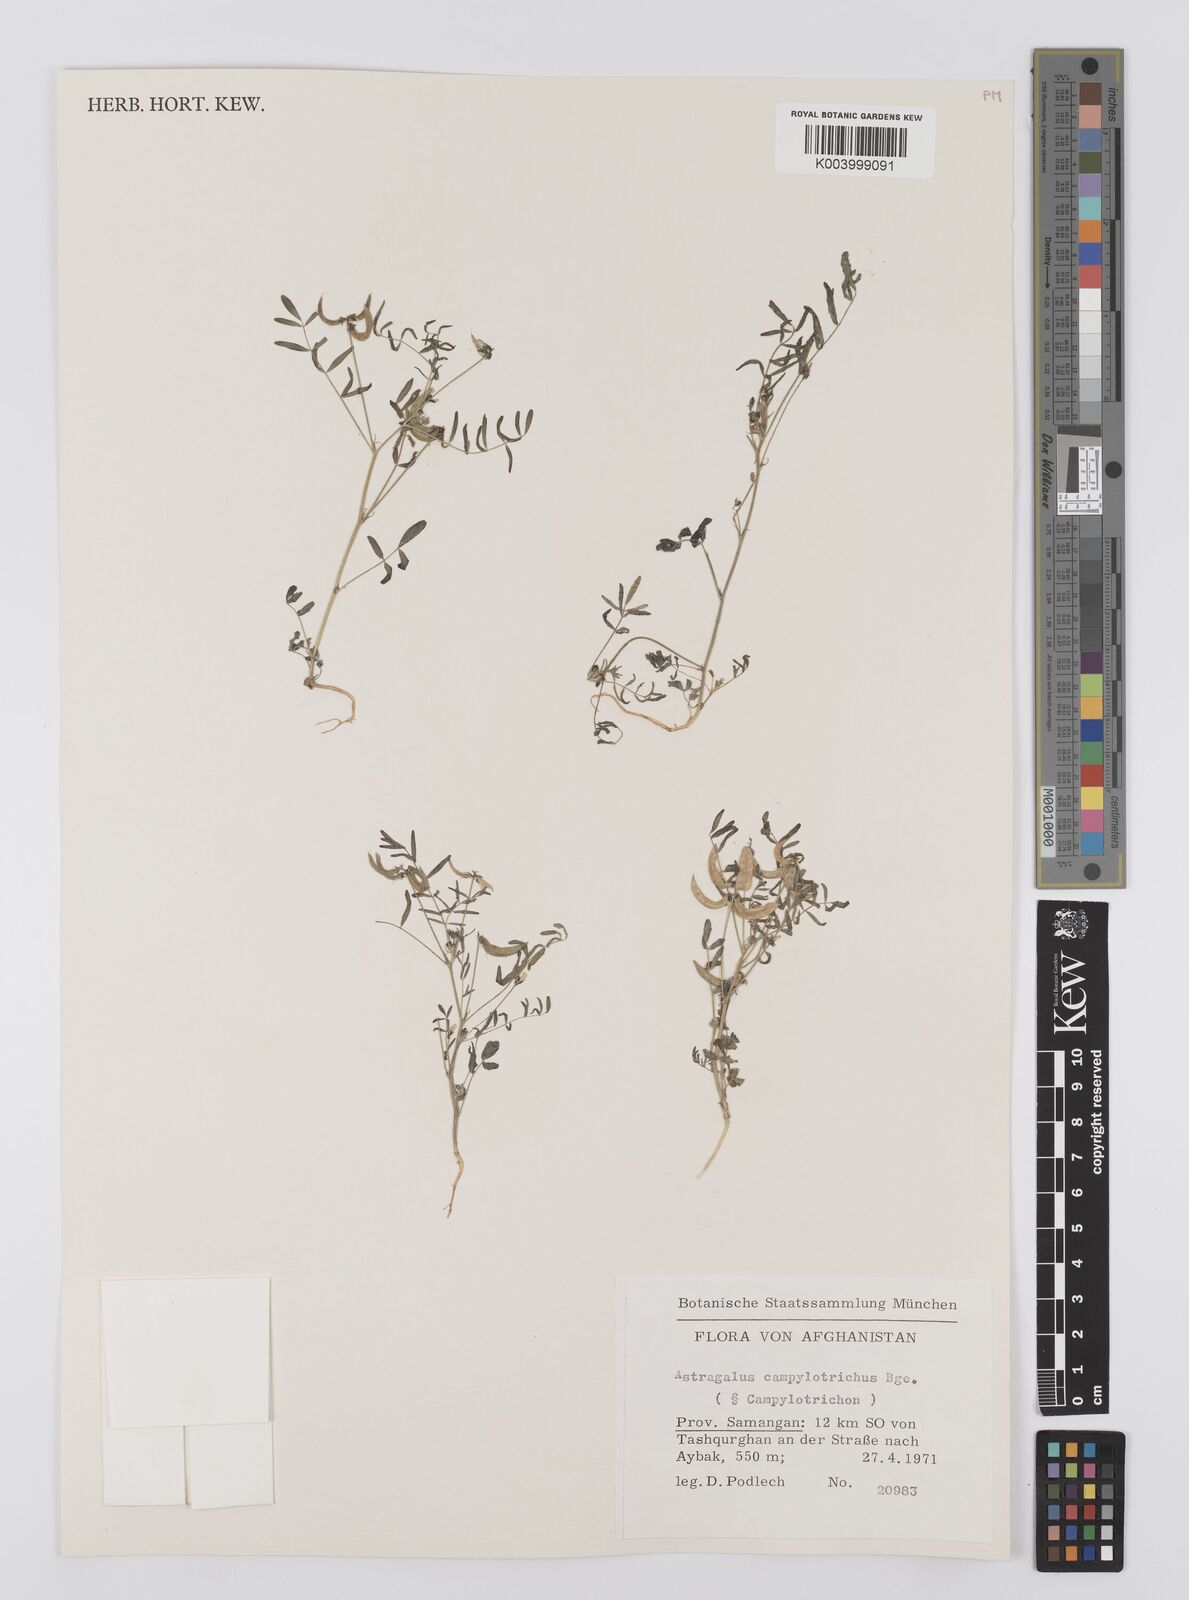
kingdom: Plantae
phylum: Tracheophyta
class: Magnoliopsida
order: Fabales
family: Fabaceae
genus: Astragalus
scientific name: Astragalus campylotrichus
